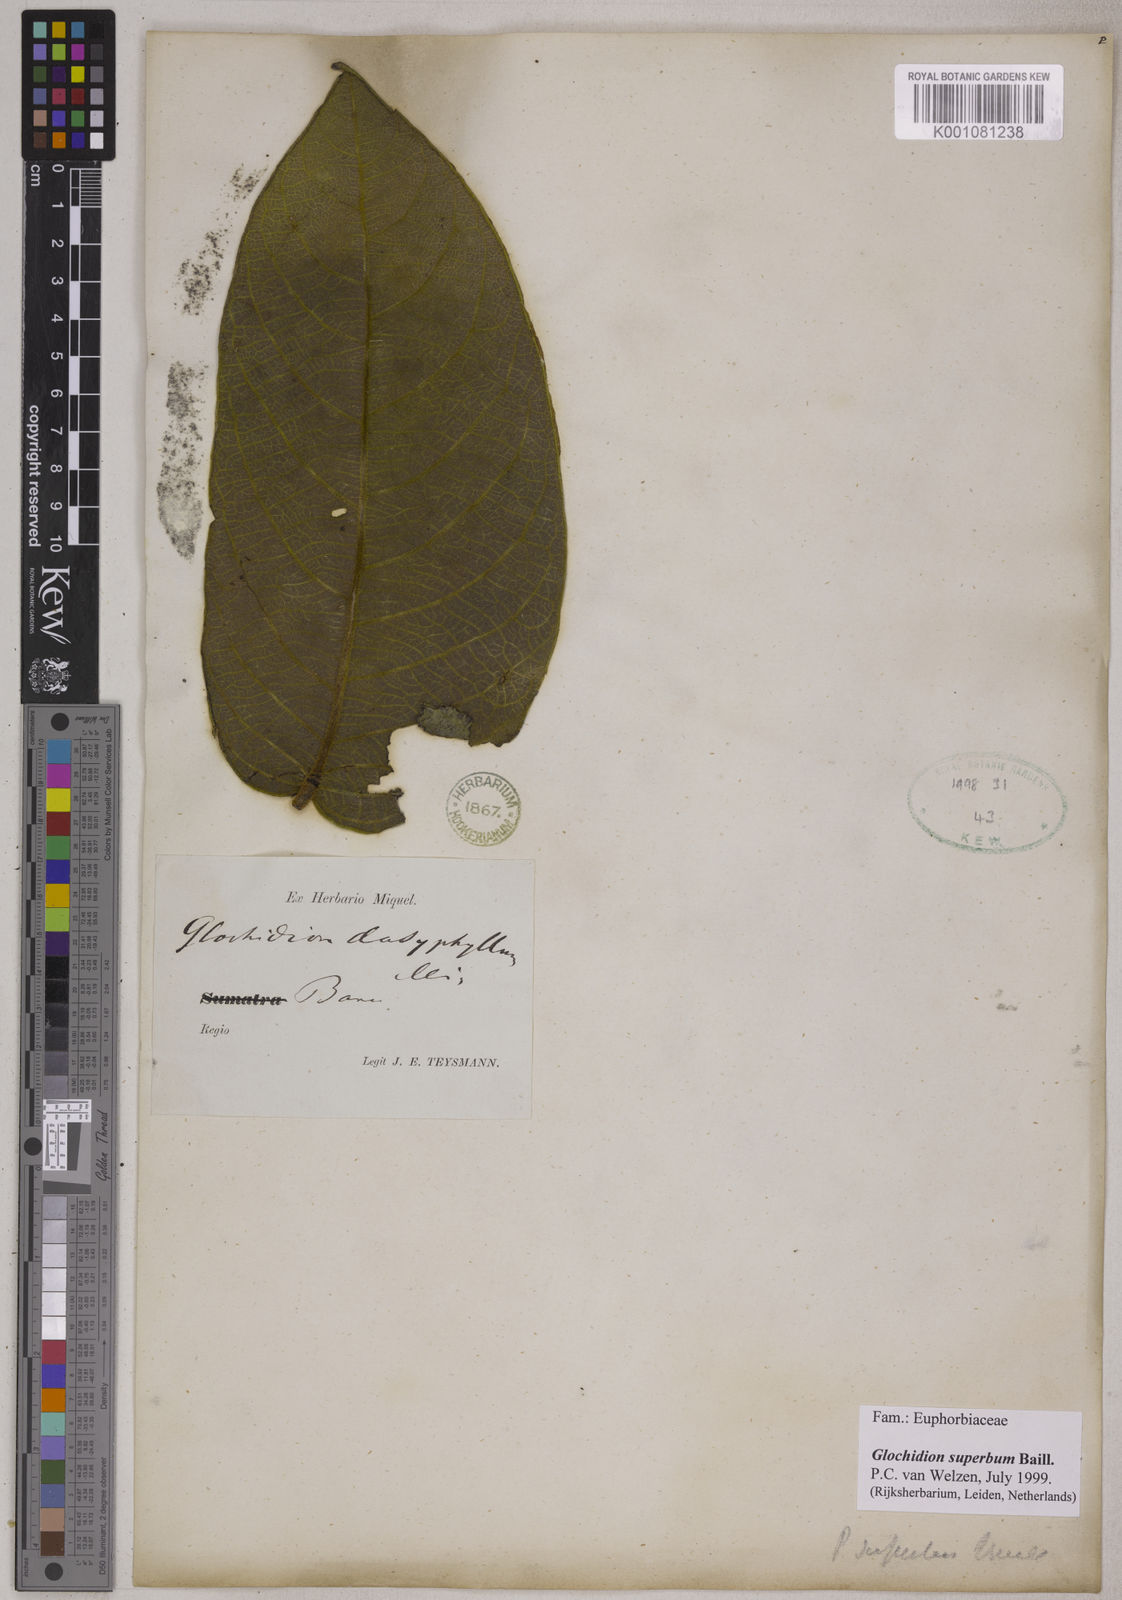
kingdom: Plantae
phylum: Tracheophyta
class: Magnoliopsida
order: Malpighiales
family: Phyllanthaceae
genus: Glochidion
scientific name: Glochidion
